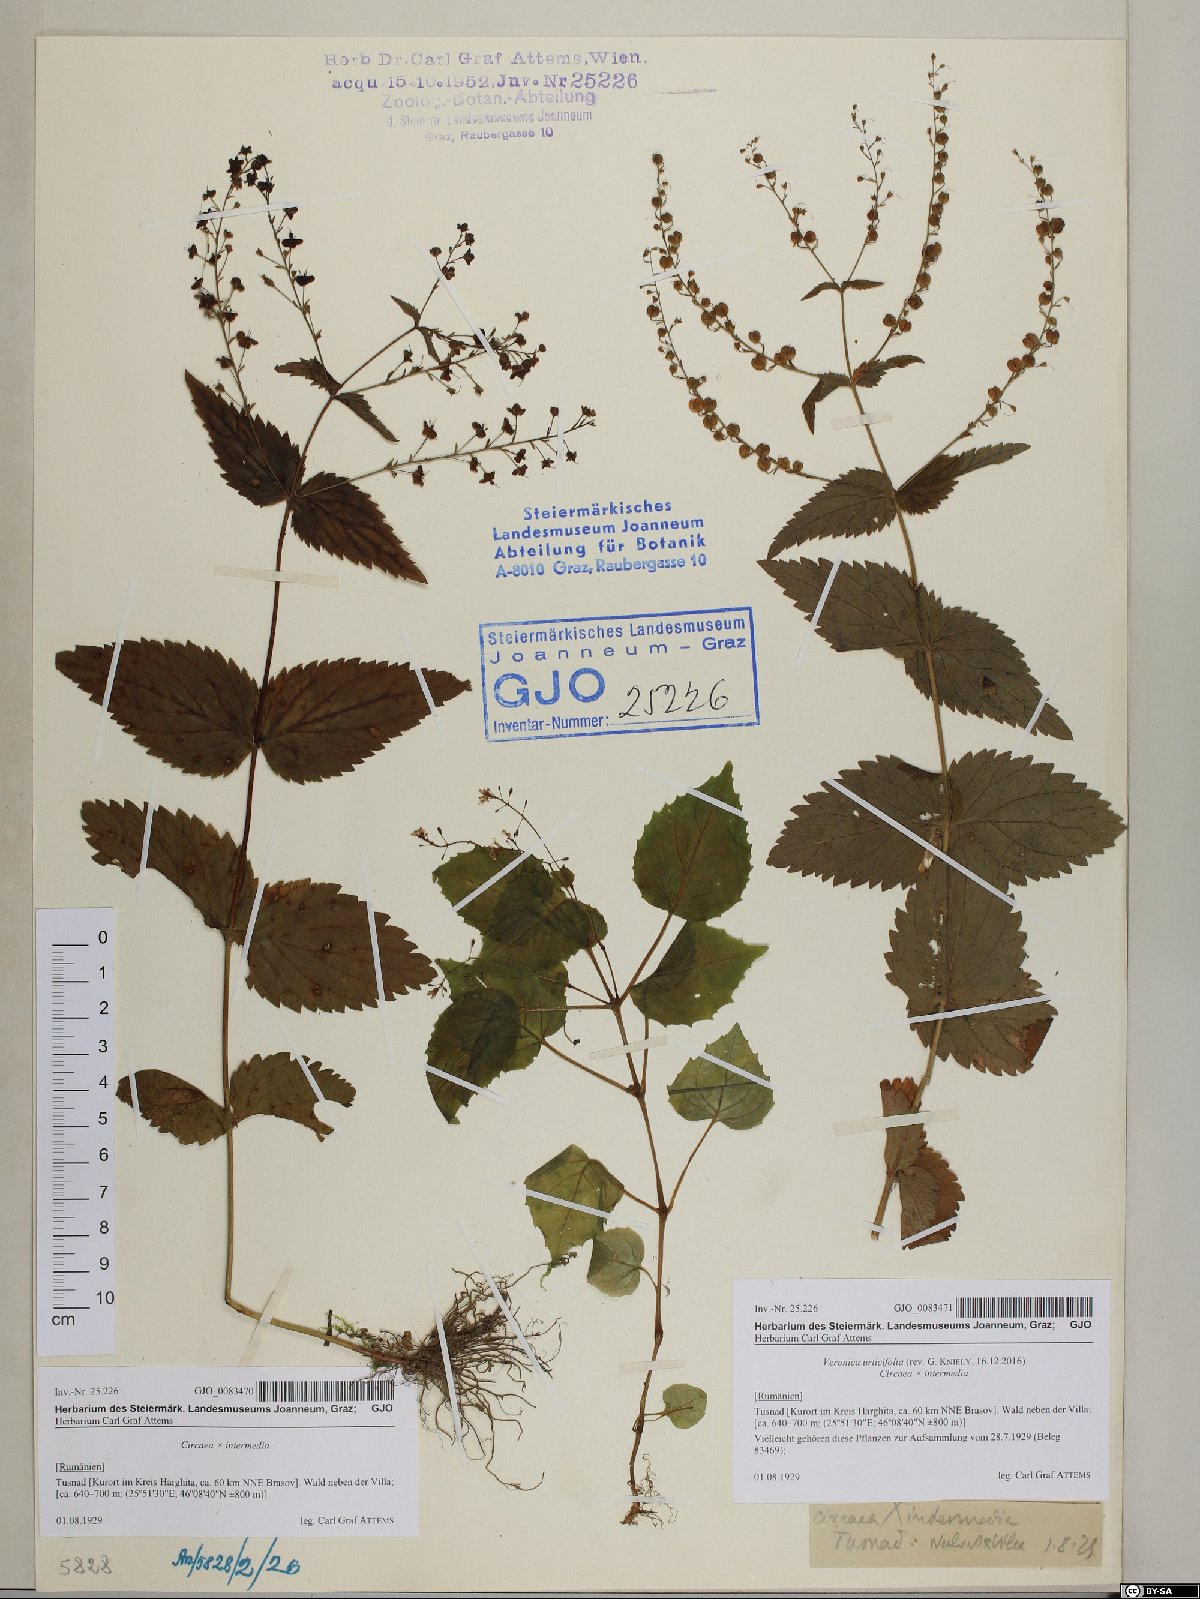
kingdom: Plantae
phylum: Tracheophyta
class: Magnoliopsida
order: Myrtales
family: Onagraceae
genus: Circaea
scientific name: Circaea intermedia
